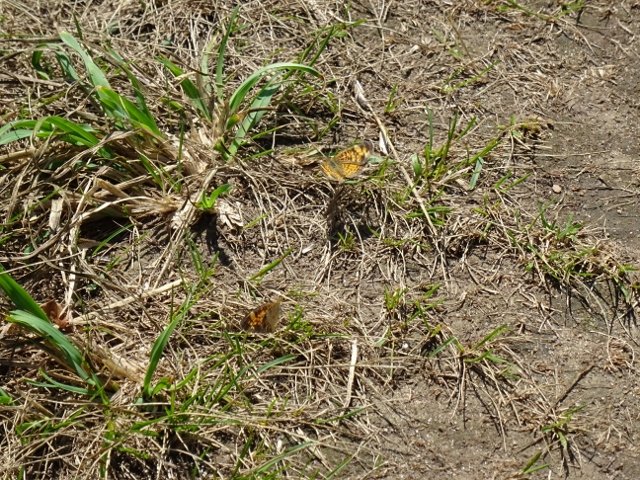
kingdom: Animalia
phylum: Arthropoda
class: Insecta
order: Lepidoptera
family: Nymphalidae
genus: Phyciodes
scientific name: Phyciodes
